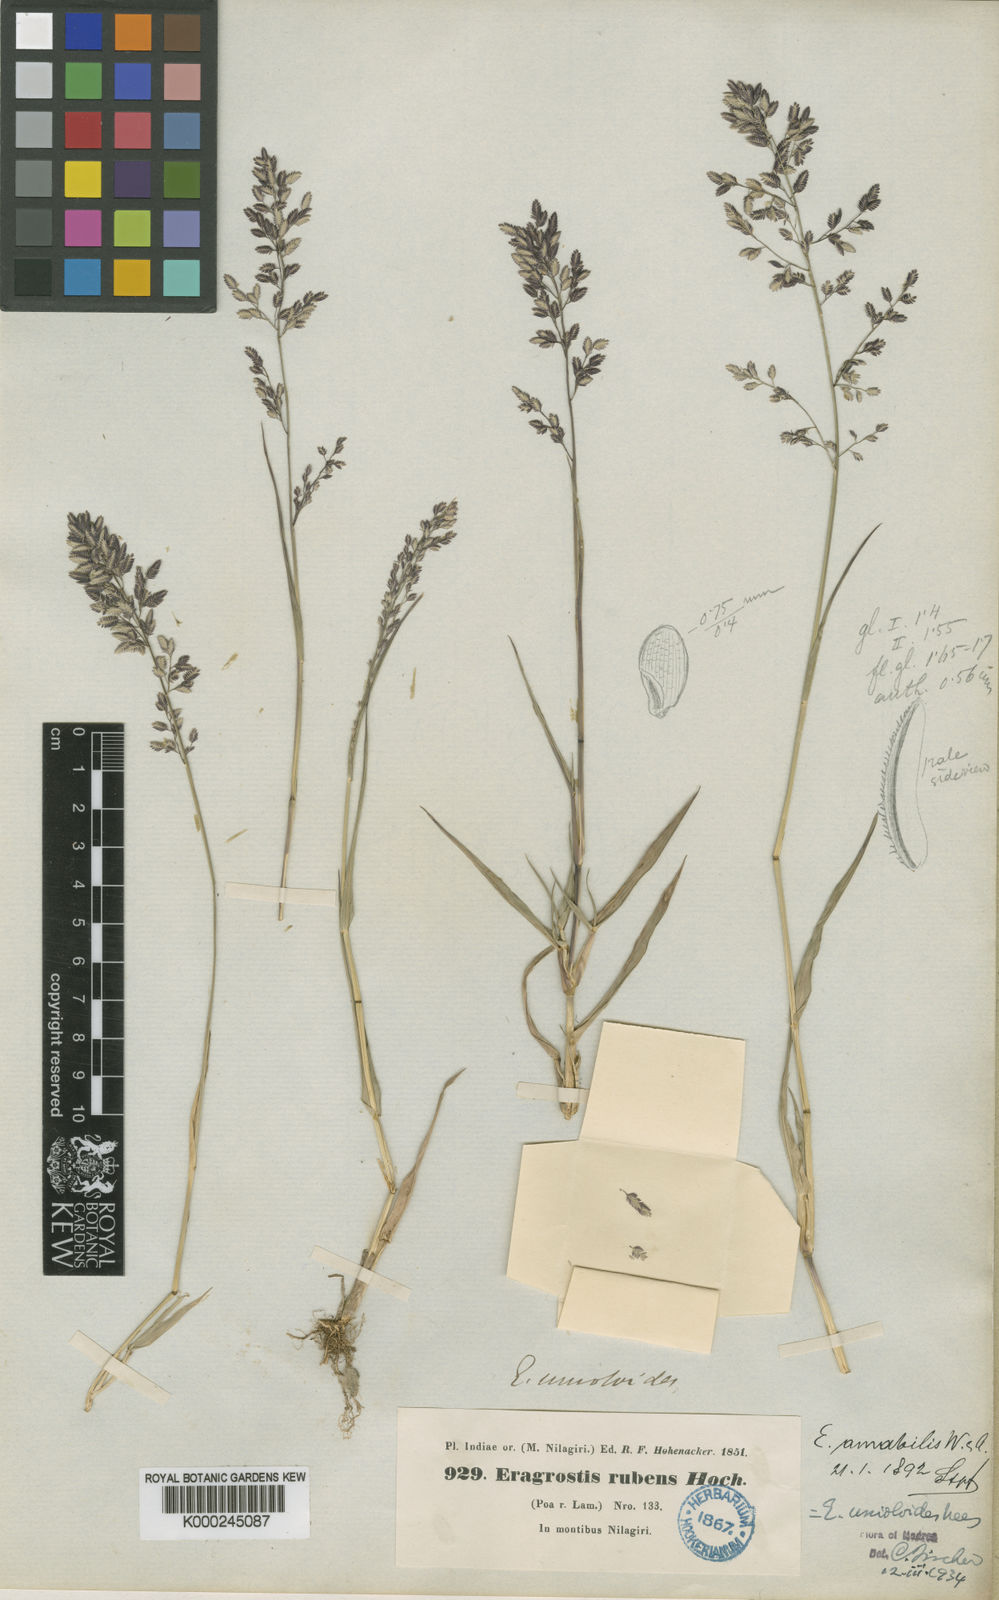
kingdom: Plantae
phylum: Tracheophyta
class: Liliopsida
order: Poales
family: Poaceae
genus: Eragrostis
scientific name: Eragrostis unioloides
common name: Chinese lovegrass
